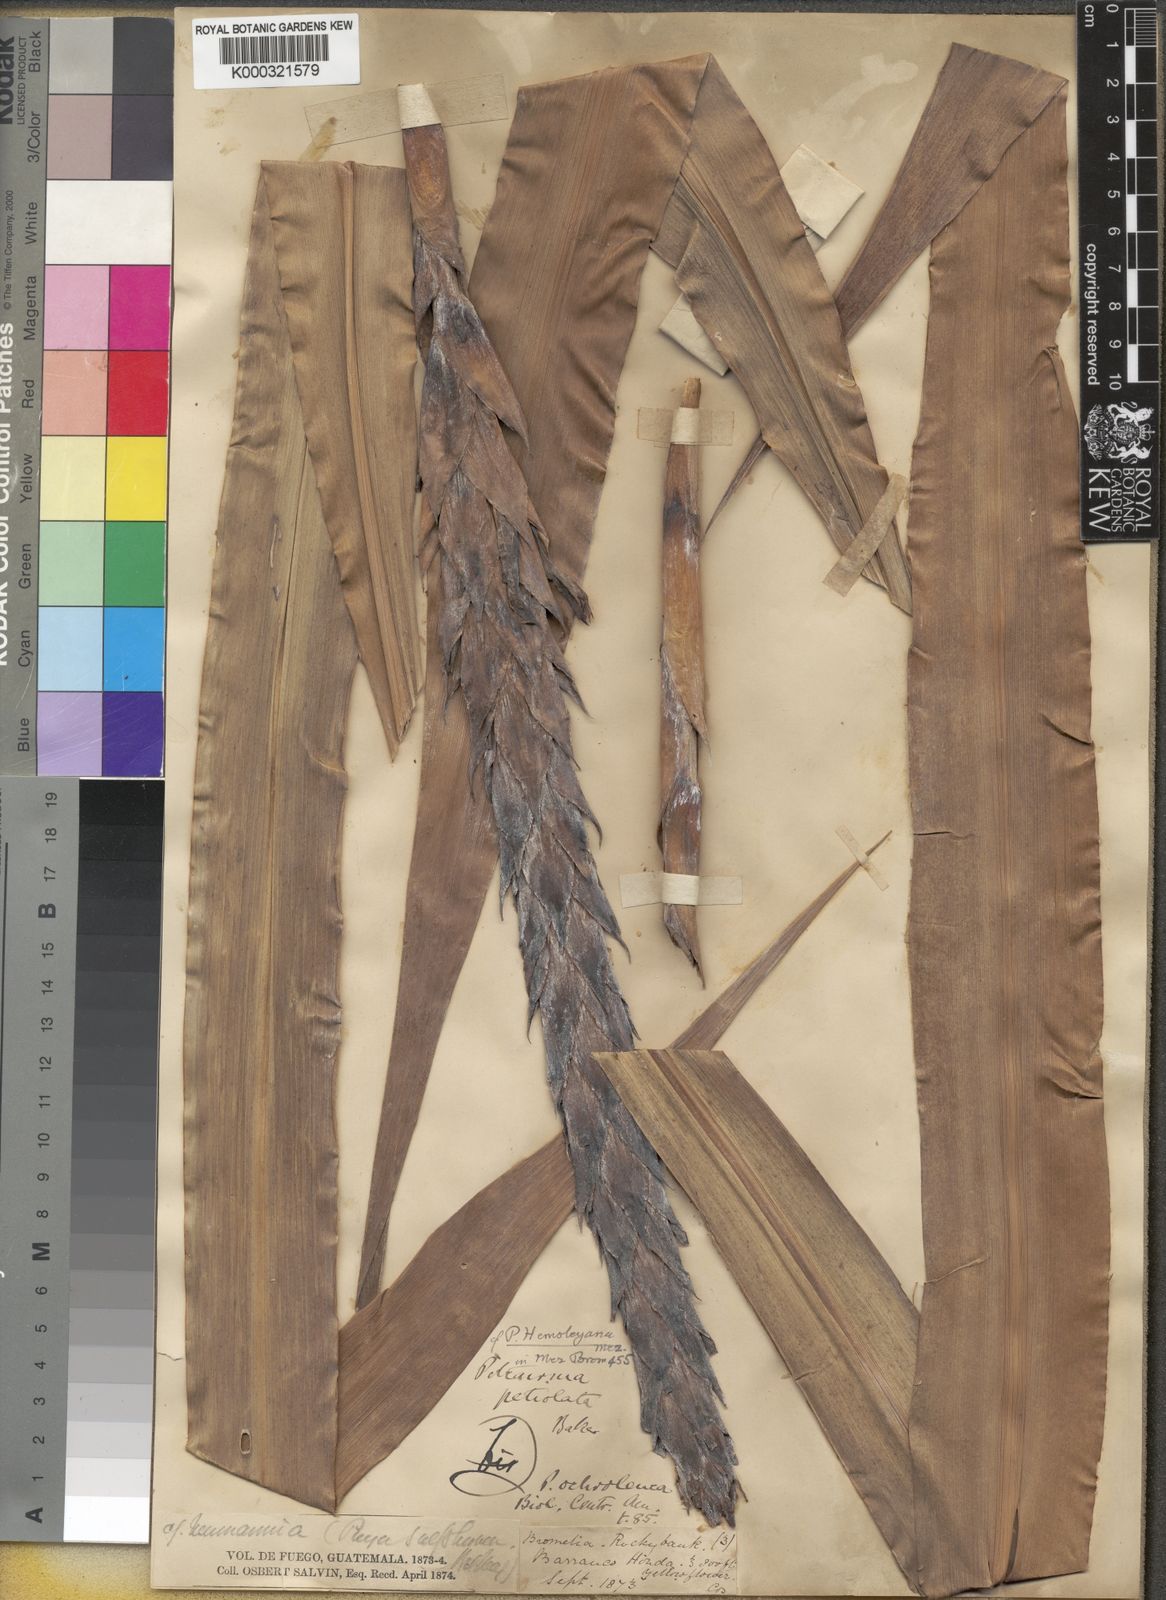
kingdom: Plantae
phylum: Tracheophyta
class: Liliopsida
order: Poales
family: Bromeliaceae
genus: Pitcairnia
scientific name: Pitcairnia imbricata
